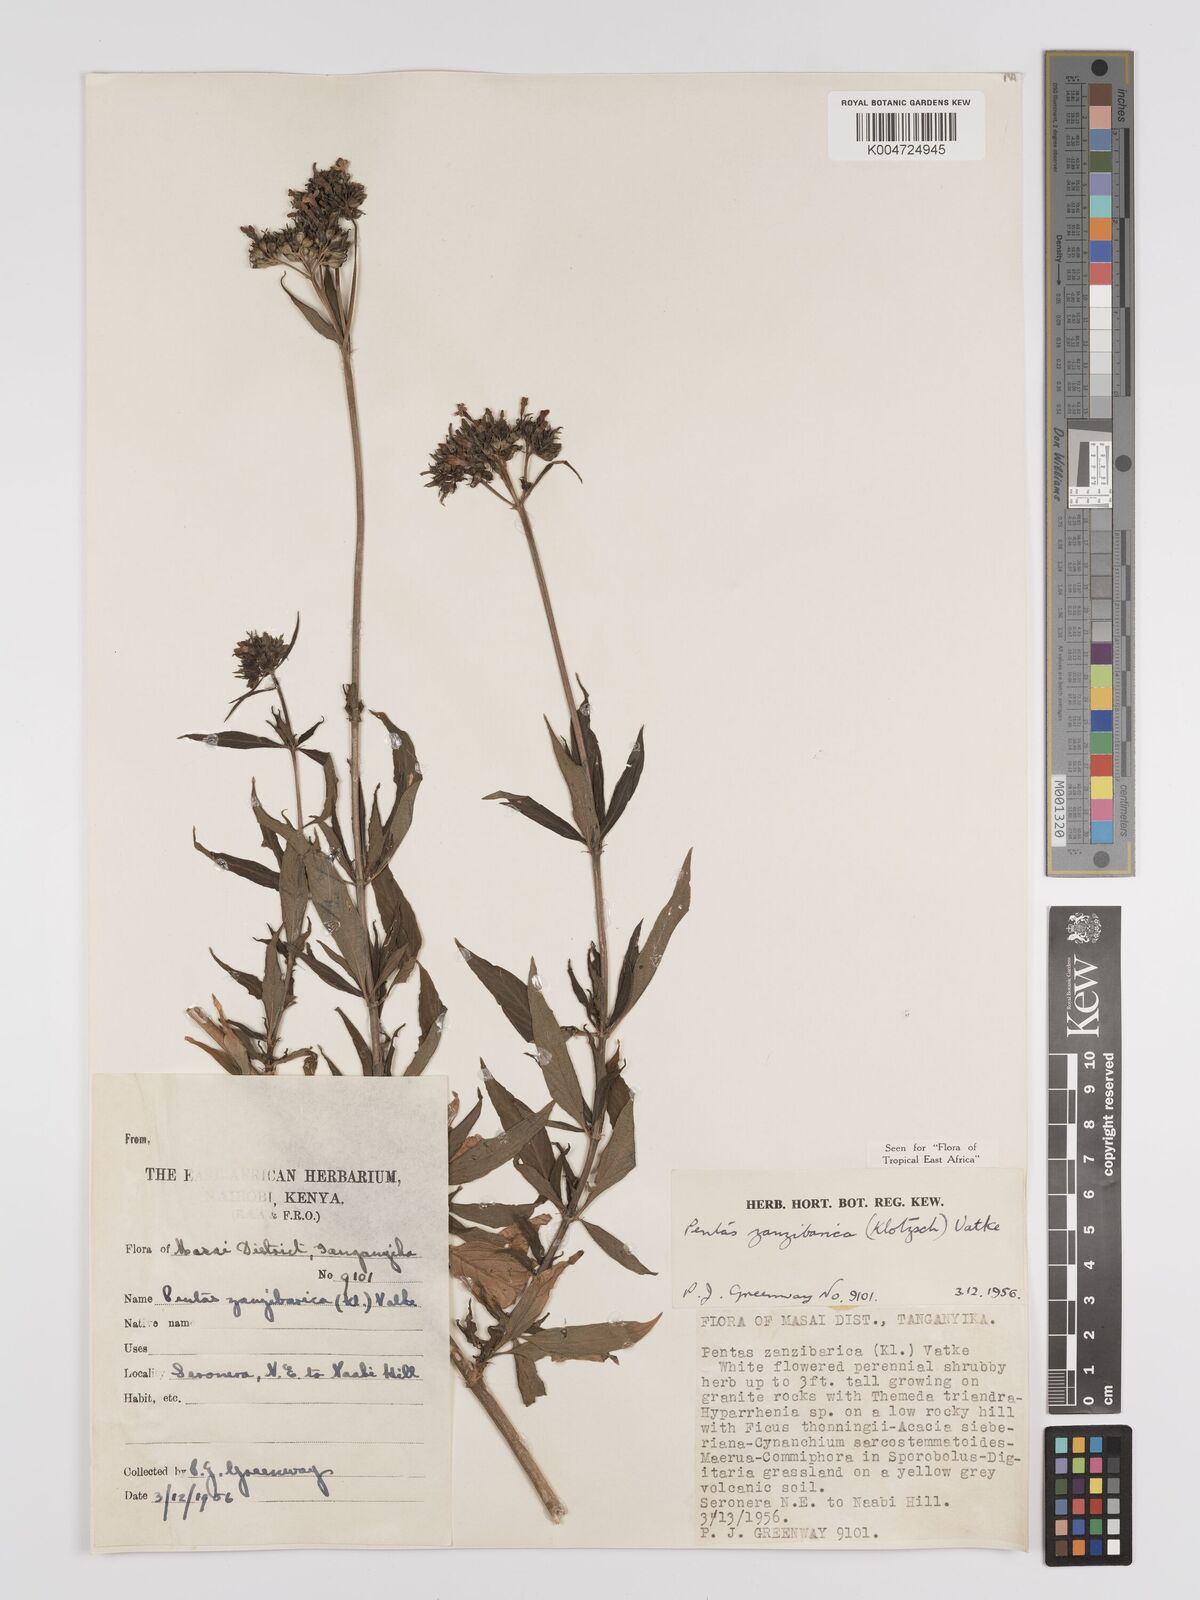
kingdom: Plantae
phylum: Tracheophyta
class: Magnoliopsida
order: Gentianales
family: Rubiaceae
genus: Pentas
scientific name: Pentas zanzibarica
